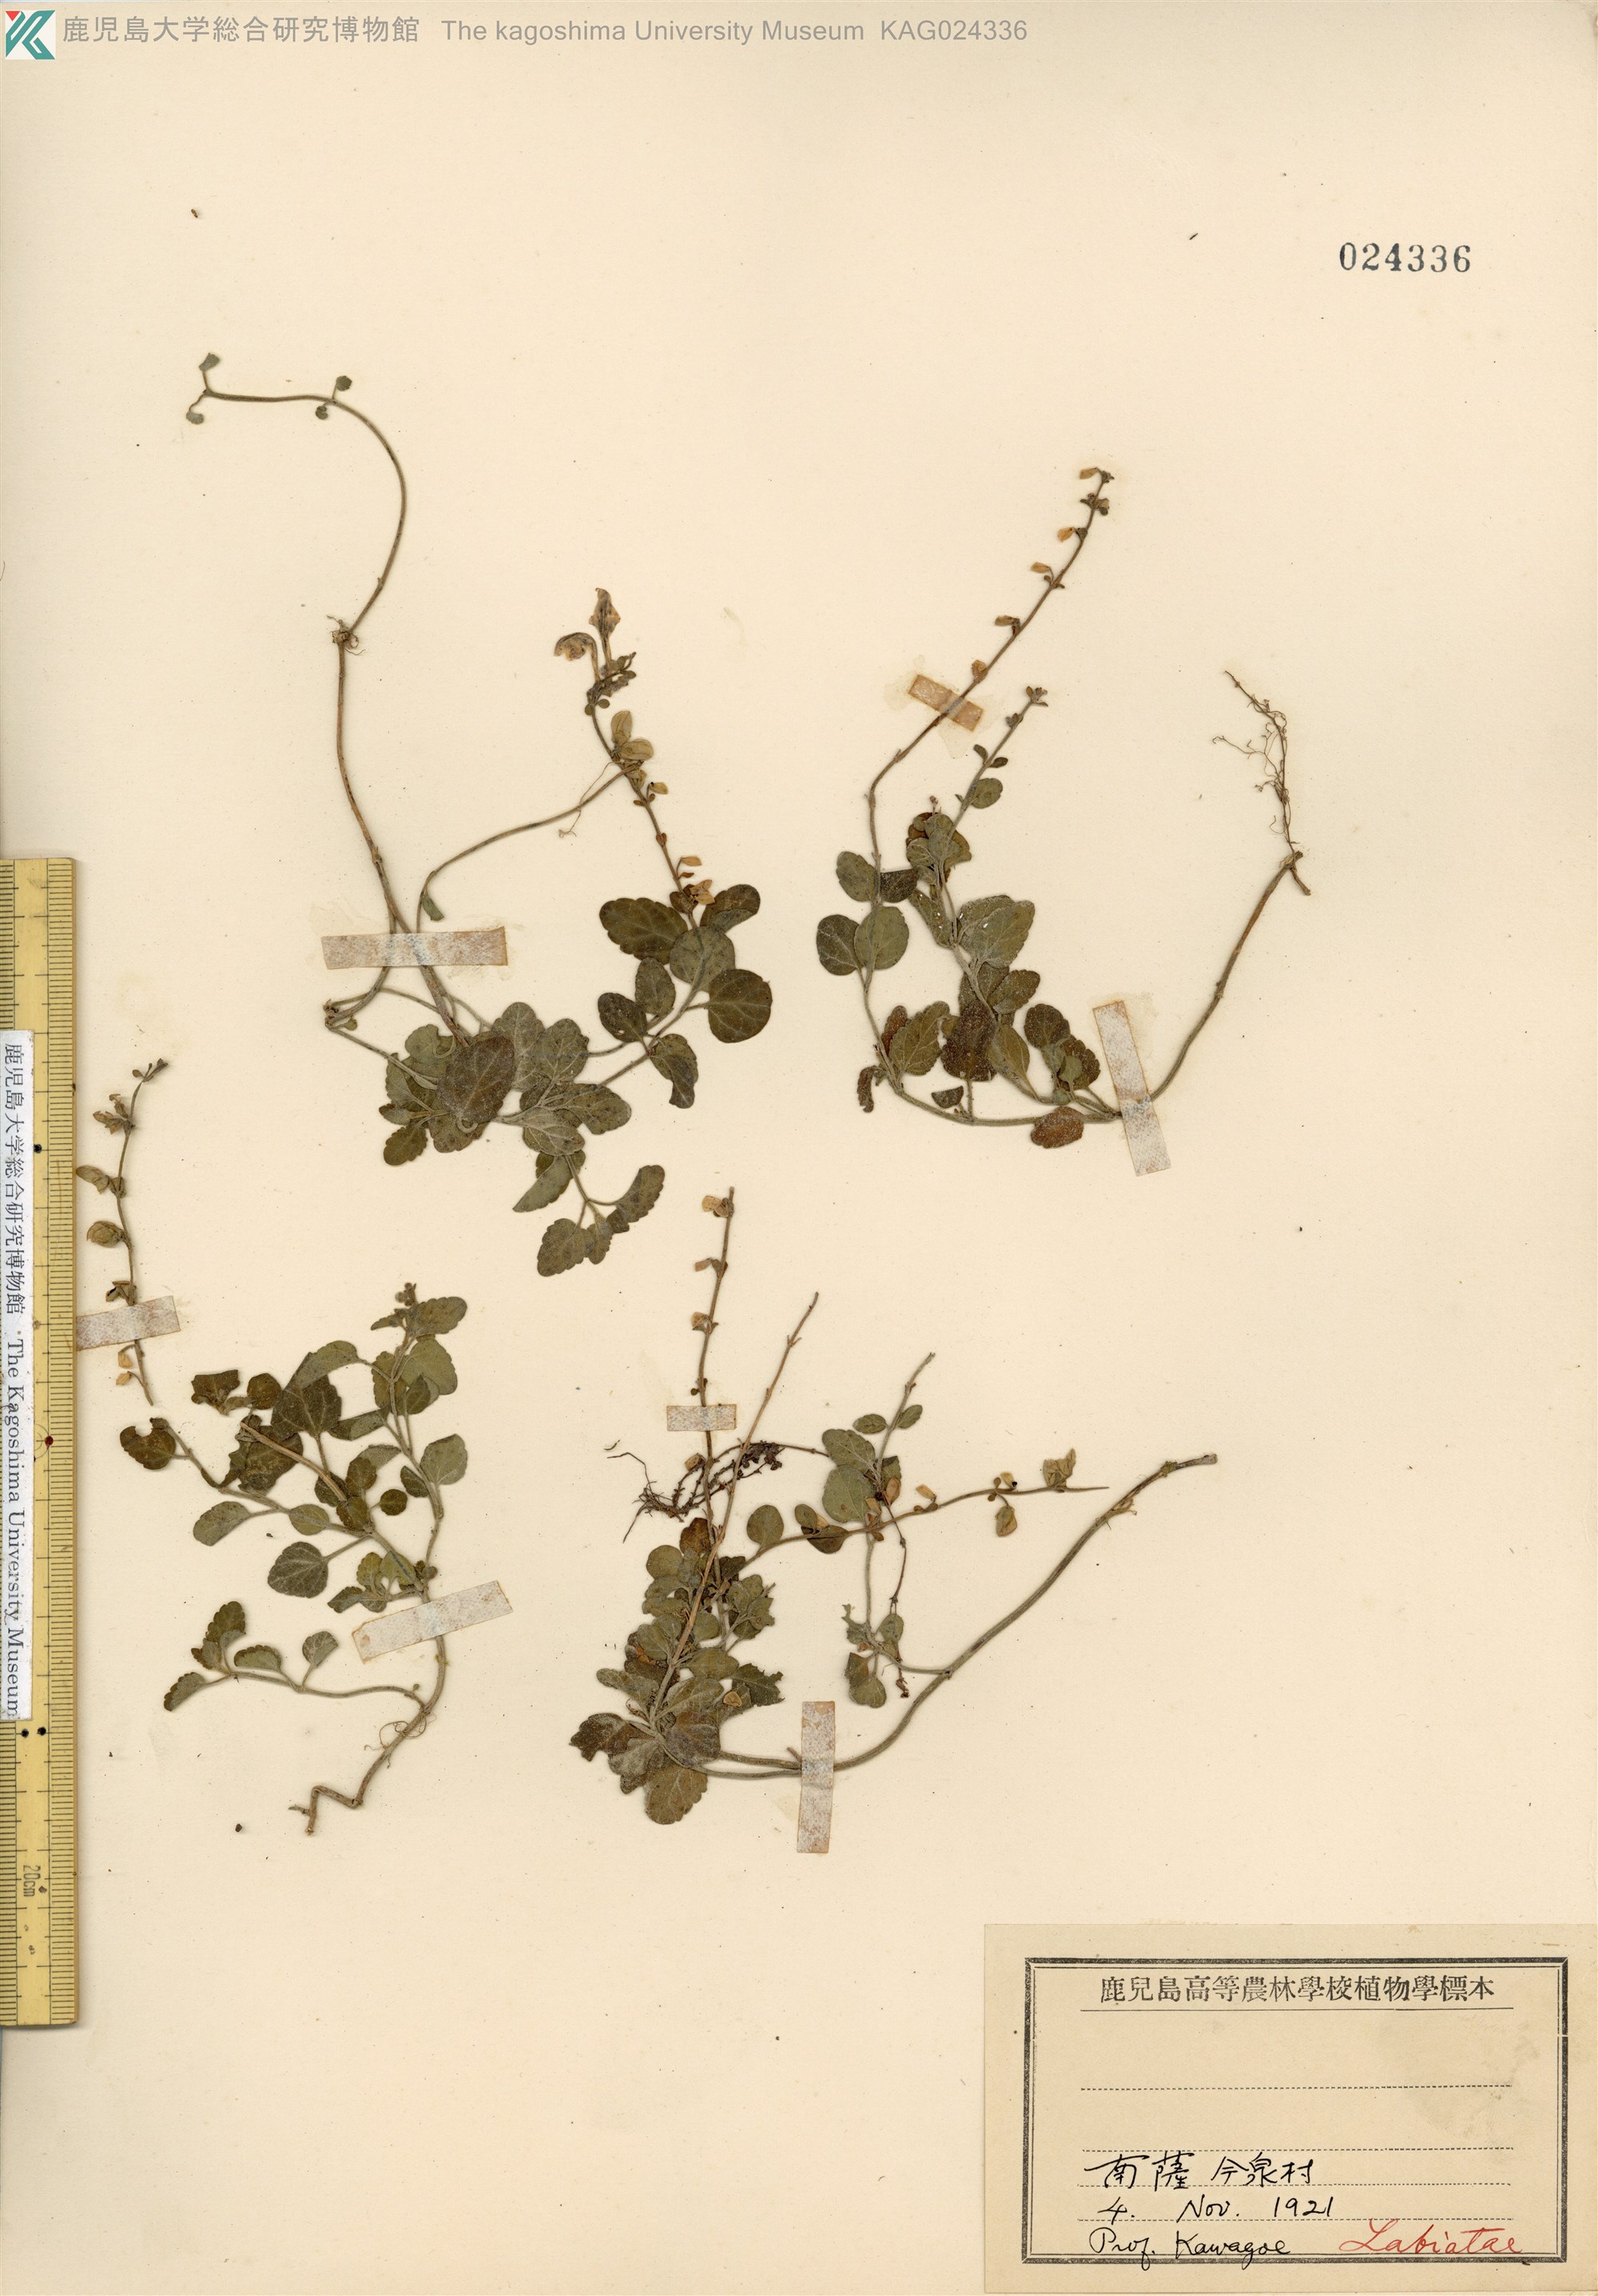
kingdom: Plantae
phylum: Tracheophyta
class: Magnoliopsida
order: Lamiales
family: Lamiaceae
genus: Scutellaria
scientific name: Scutellaria indica
